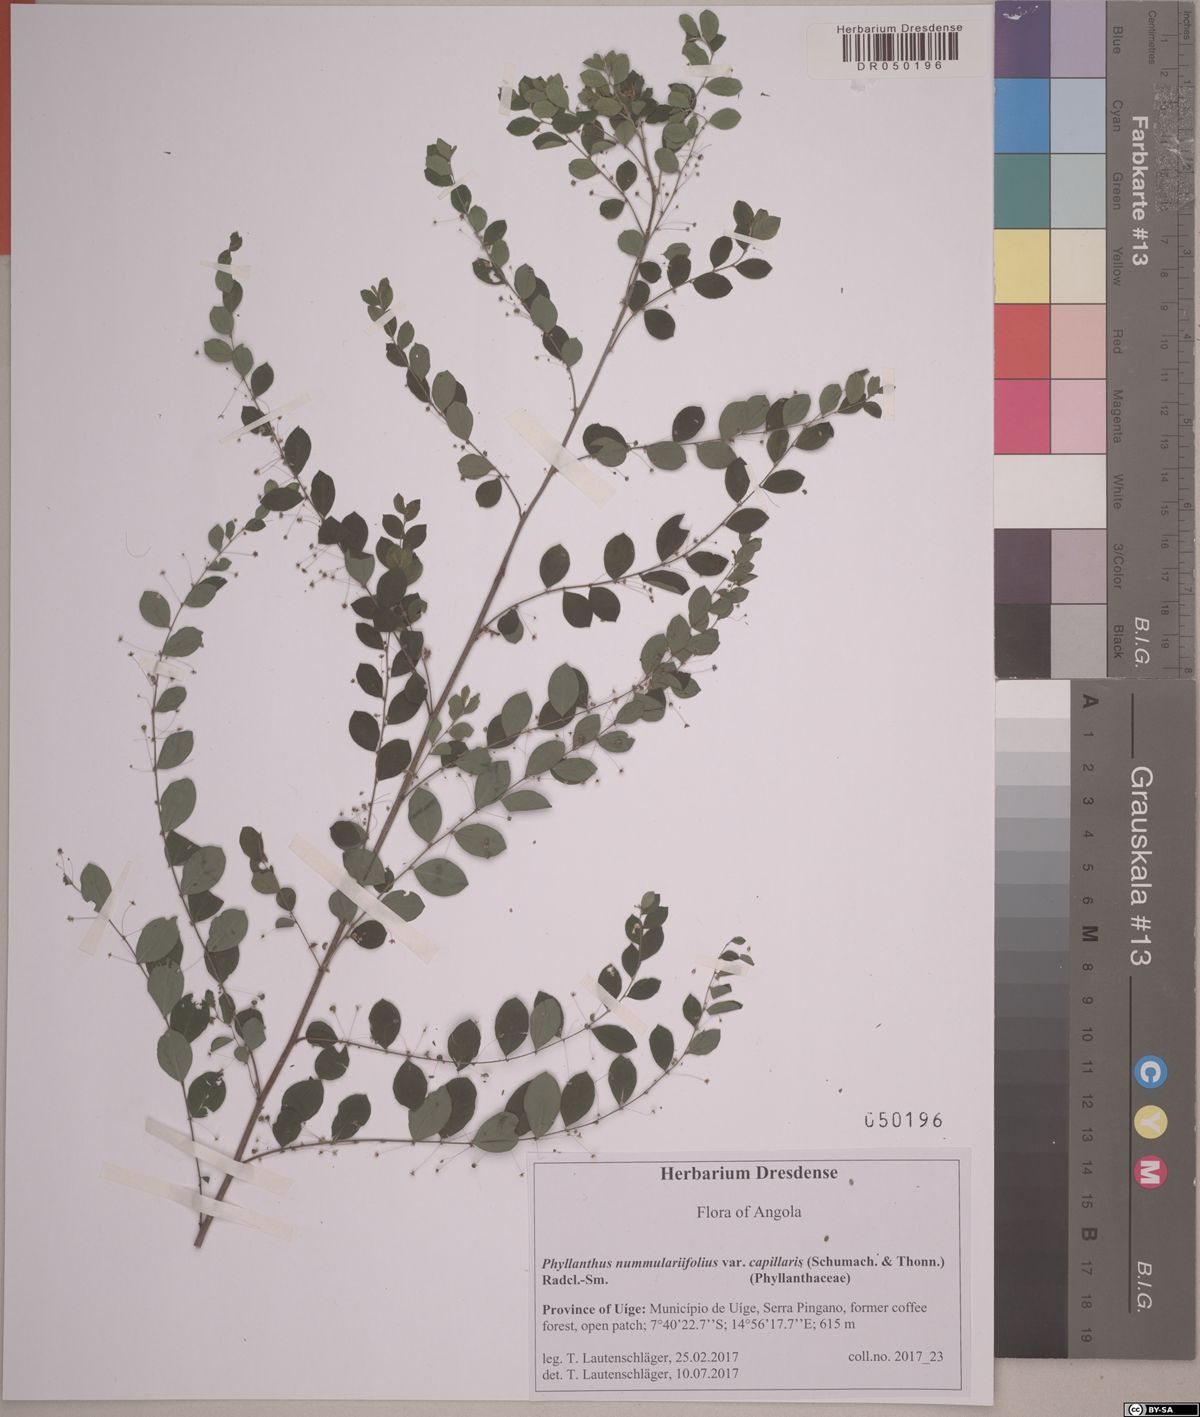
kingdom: Plantae
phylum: Tracheophyta
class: Magnoliopsida
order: Malpighiales
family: Phyllanthaceae
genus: Phyllanthus
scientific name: Phyllanthus nummulariifolius
